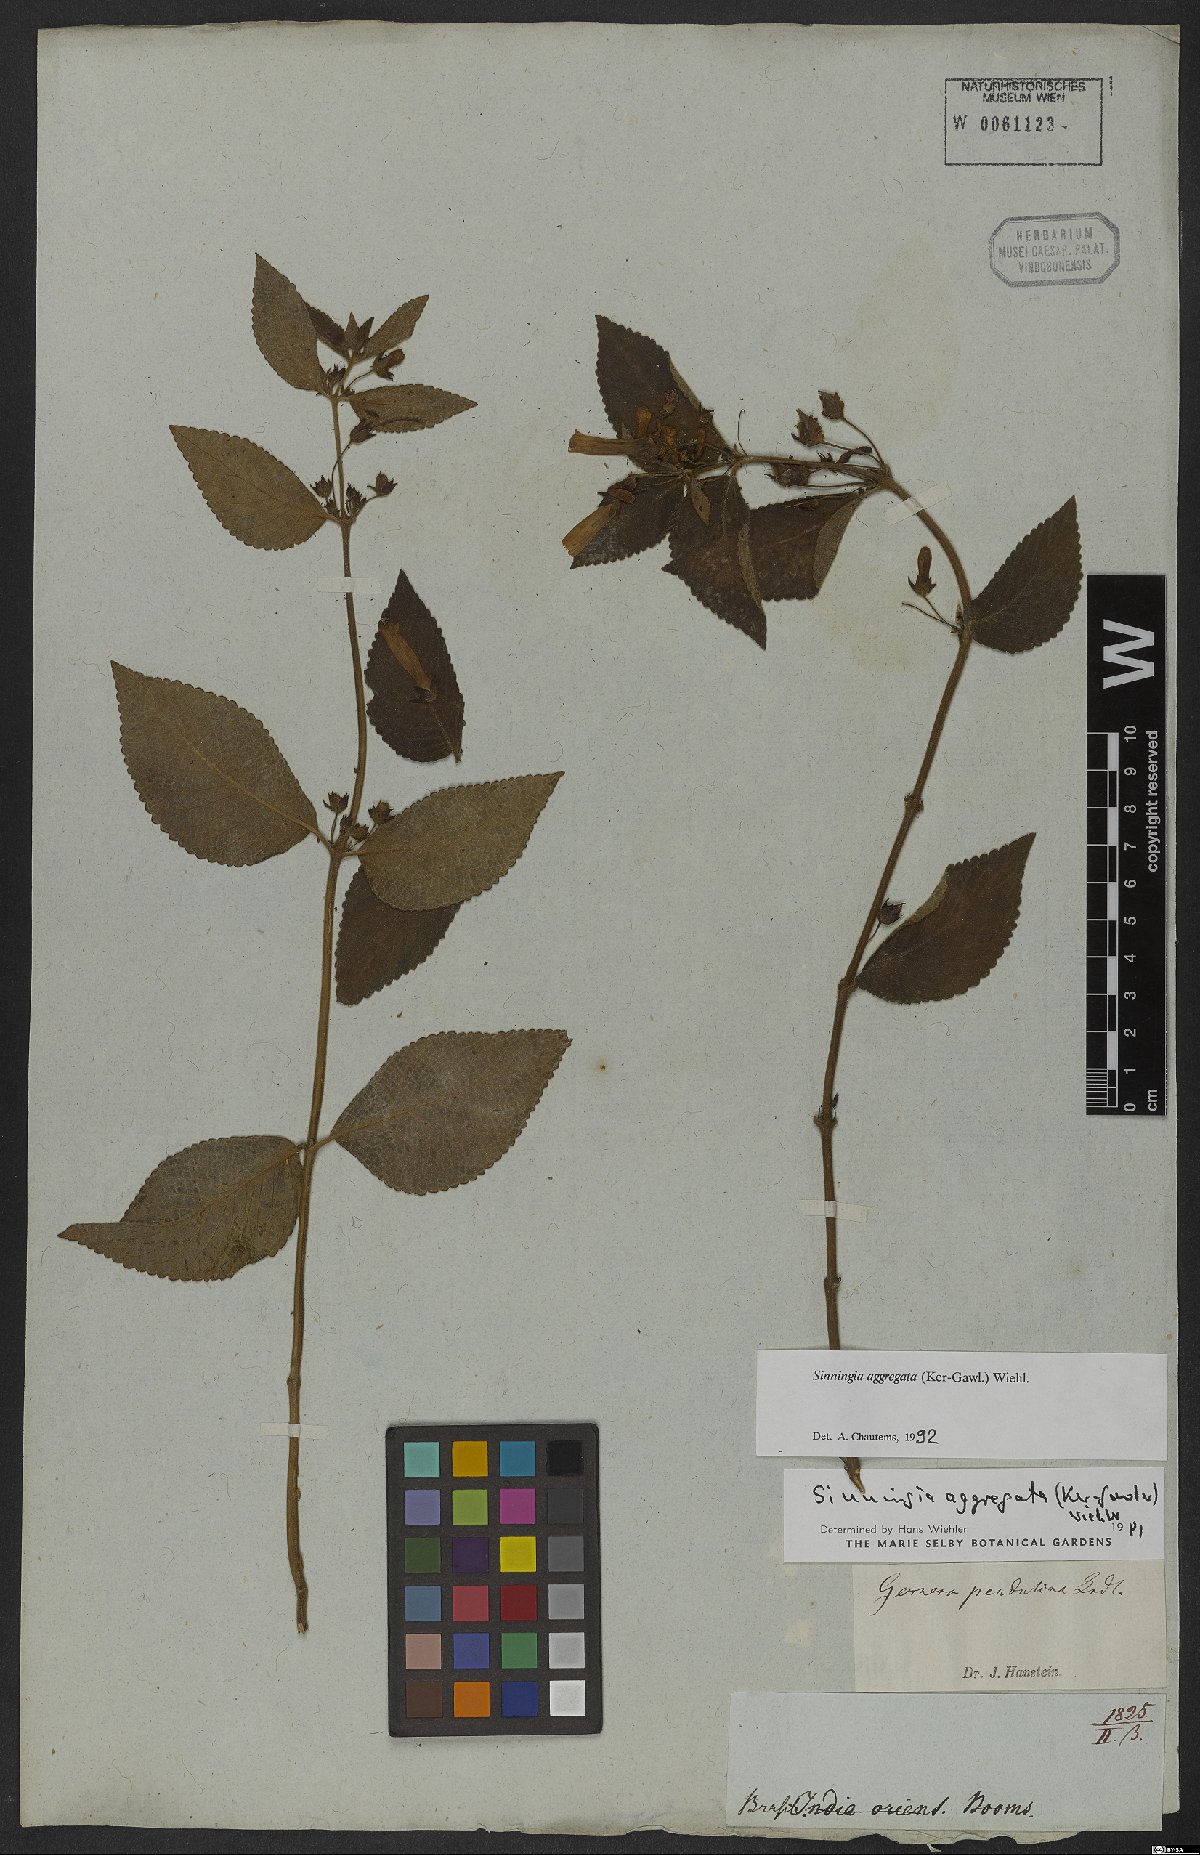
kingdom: Plantae
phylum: Tracheophyta
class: Magnoliopsida
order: Lamiales
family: Gesneriaceae
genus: Sinningia
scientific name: Sinningia aggregata
